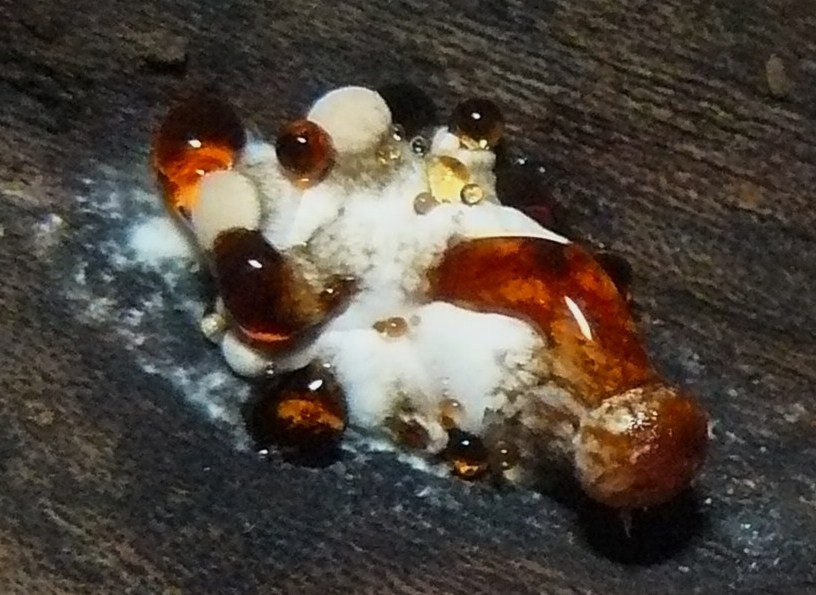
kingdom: Fungi
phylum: Basidiomycota
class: Agaricomycetes
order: Agaricales
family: Physalacriaceae
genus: Rhodotus
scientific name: Rhodotus palmatus
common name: ferskenhat
